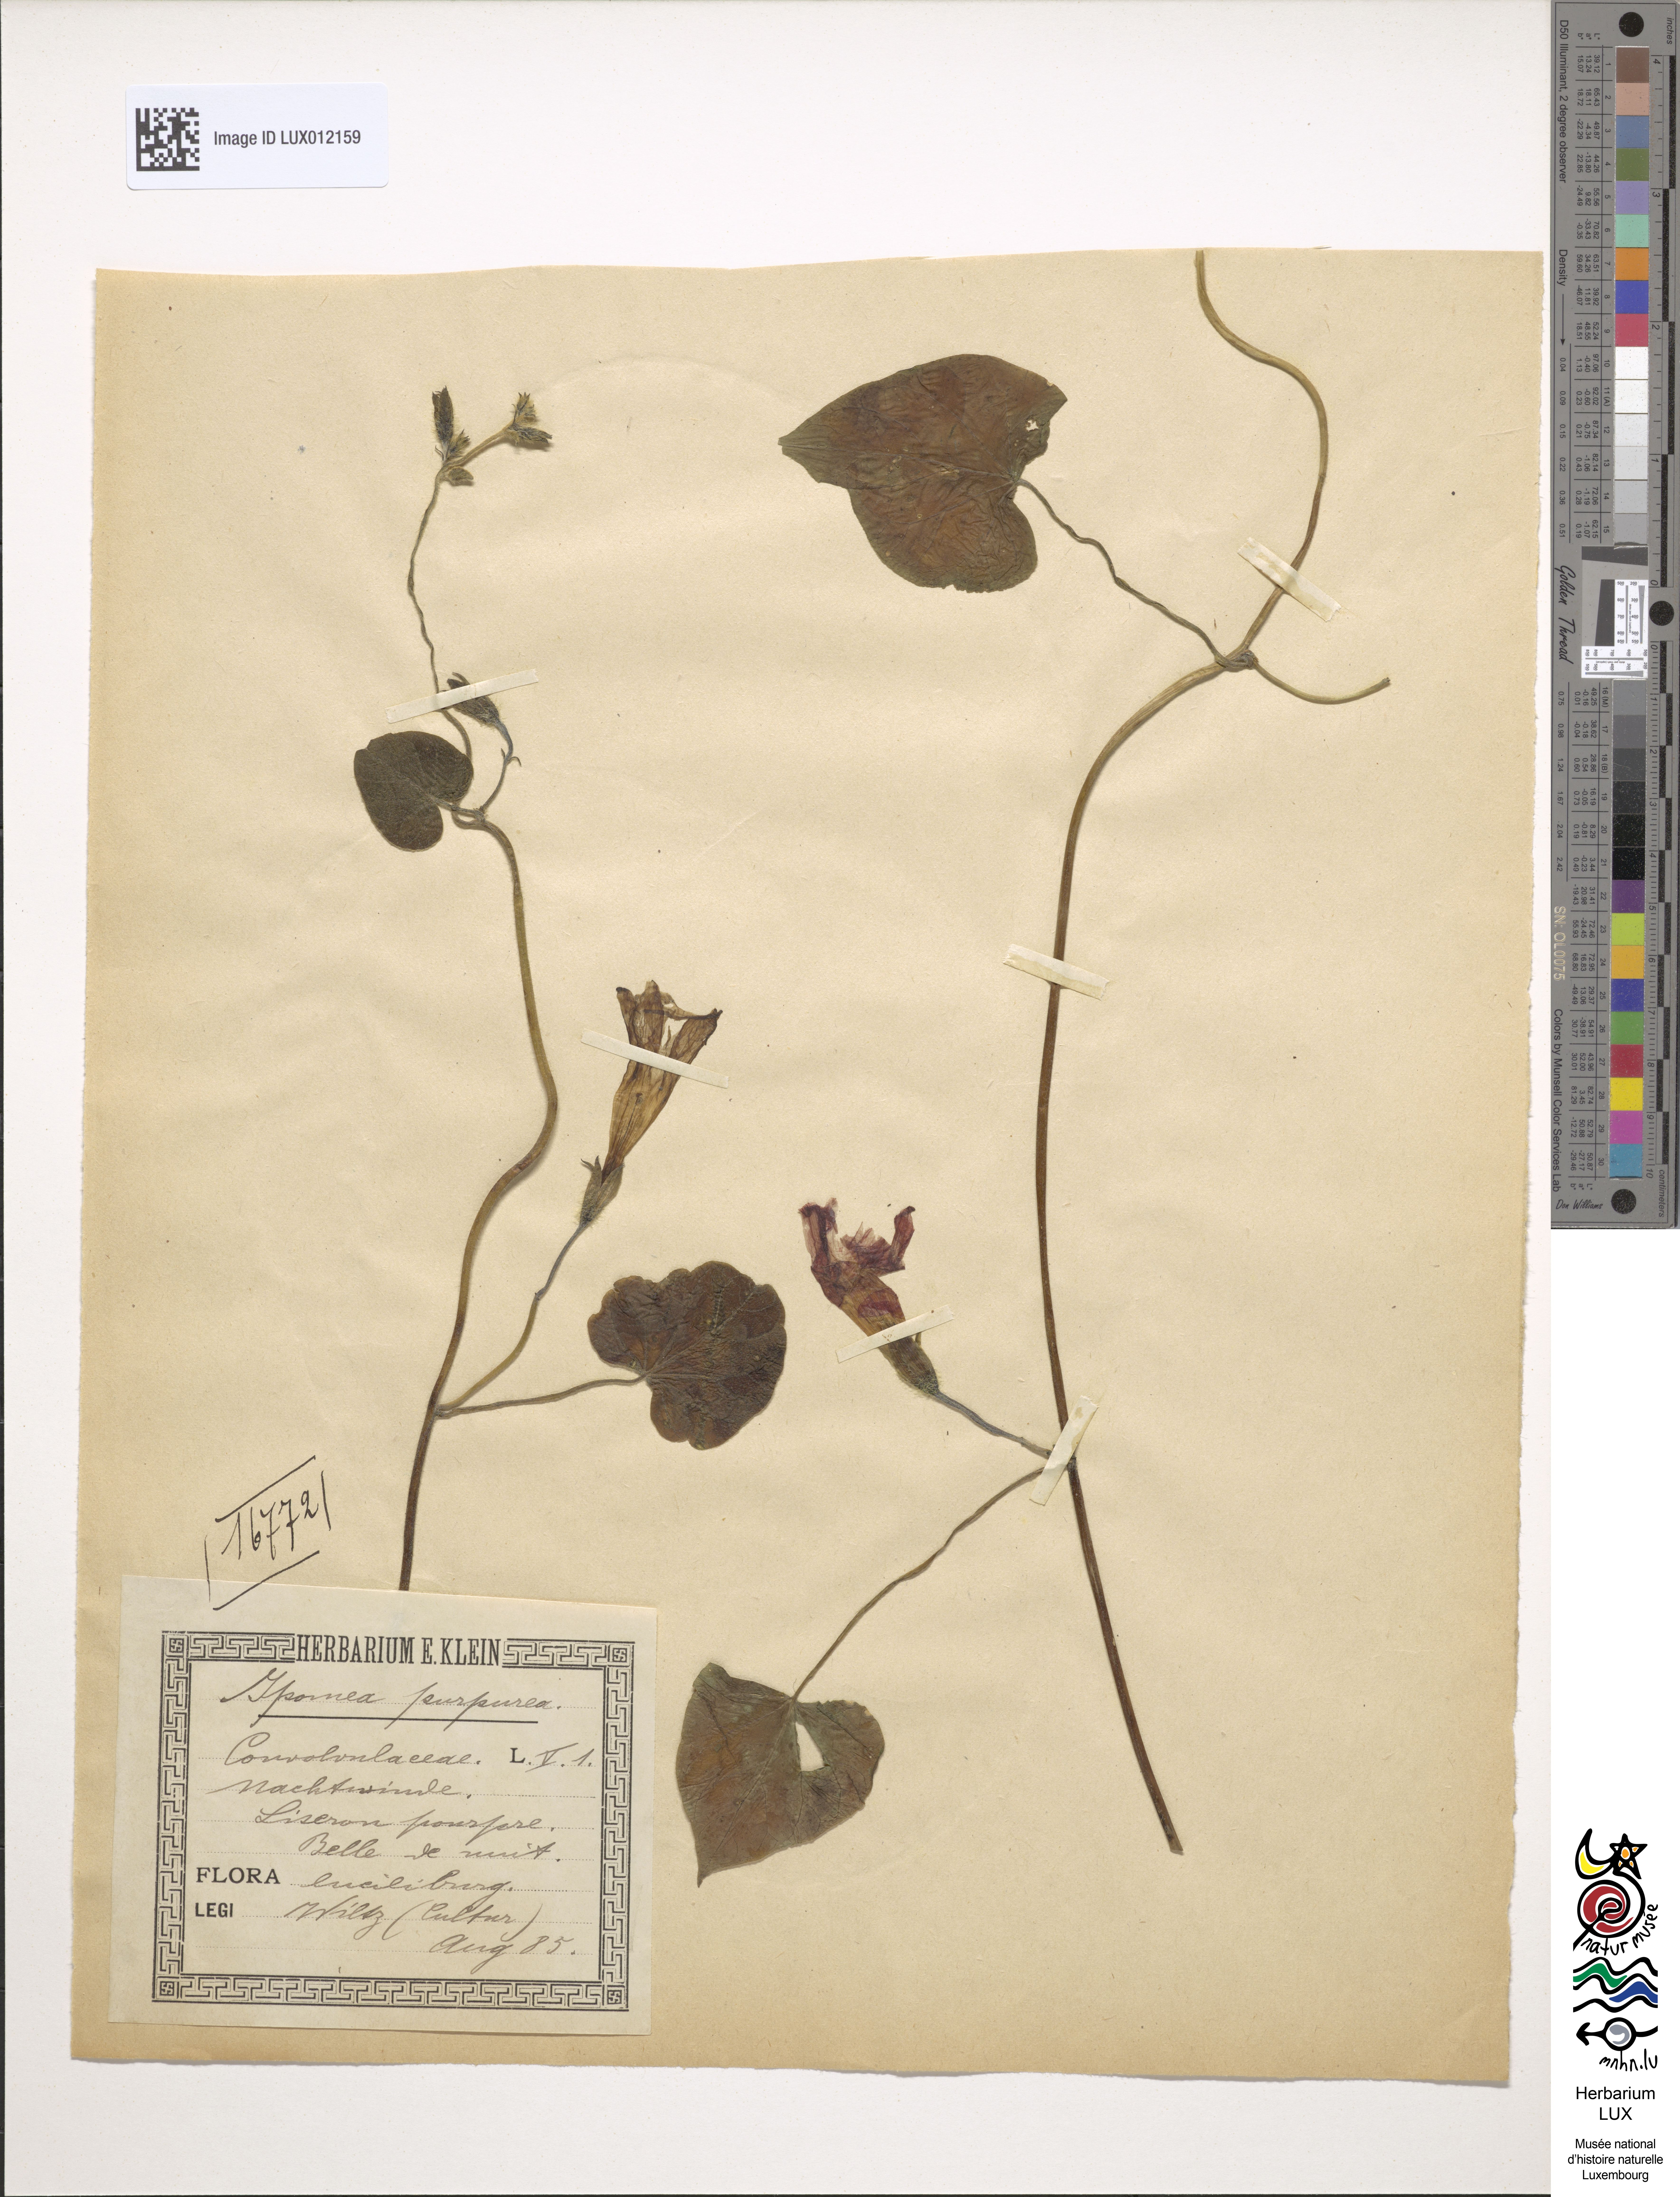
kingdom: Plantae
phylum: Tracheophyta
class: Magnoliopsida
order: Solanales
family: Convolvulaceae
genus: Ipomoea
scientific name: Ipomoea purpurea
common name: Common morning-glory
